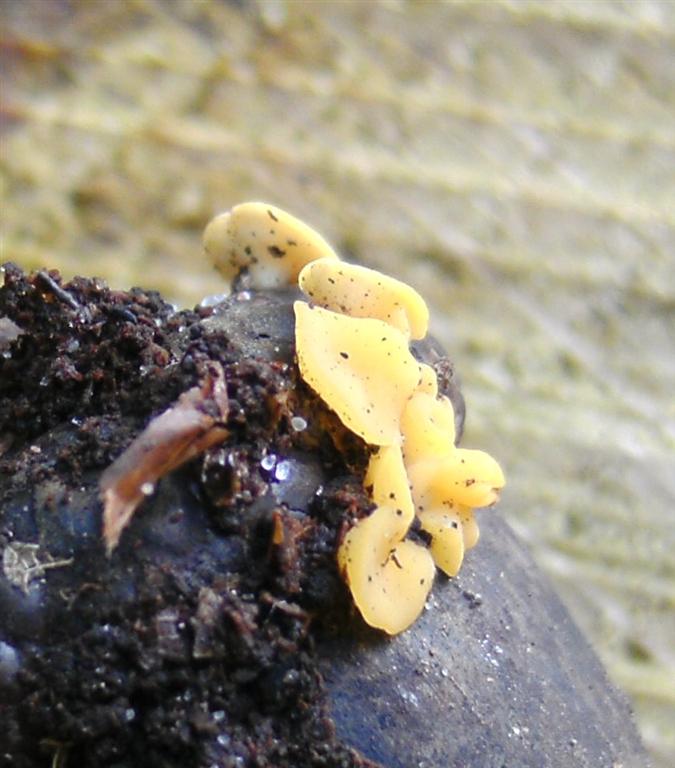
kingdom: Fungi
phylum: Ascomycota
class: Leotiomycetes
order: Helotiales
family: Pezizellaceae
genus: Calycina
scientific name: Calycina citrina
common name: almindelig gulskive
